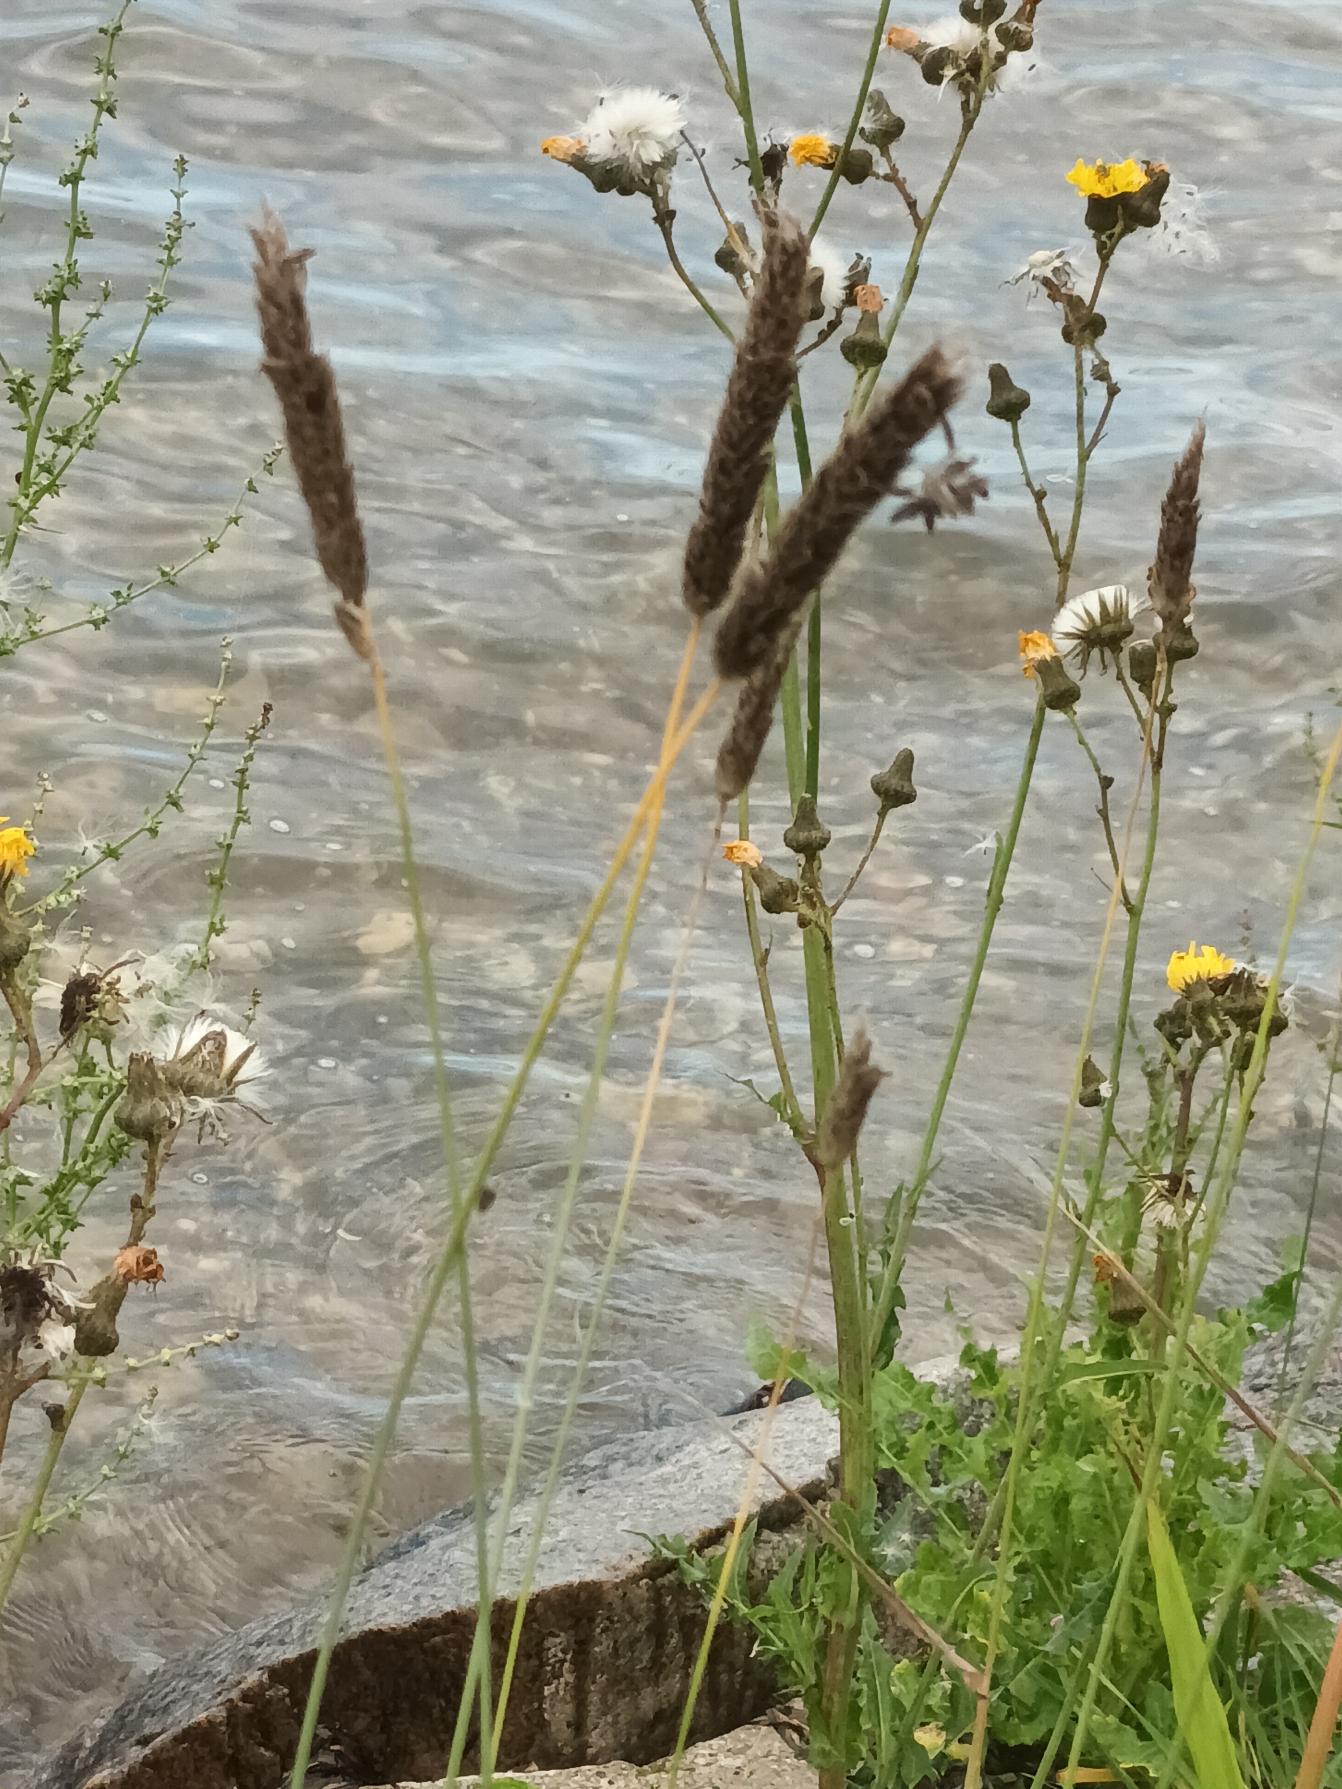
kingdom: Plantae
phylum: Tracheophyta
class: Liliopsida
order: Poales
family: Poaceae
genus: Alopecurus
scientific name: Alopecurus arundinaceus
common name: Sort rævehale
